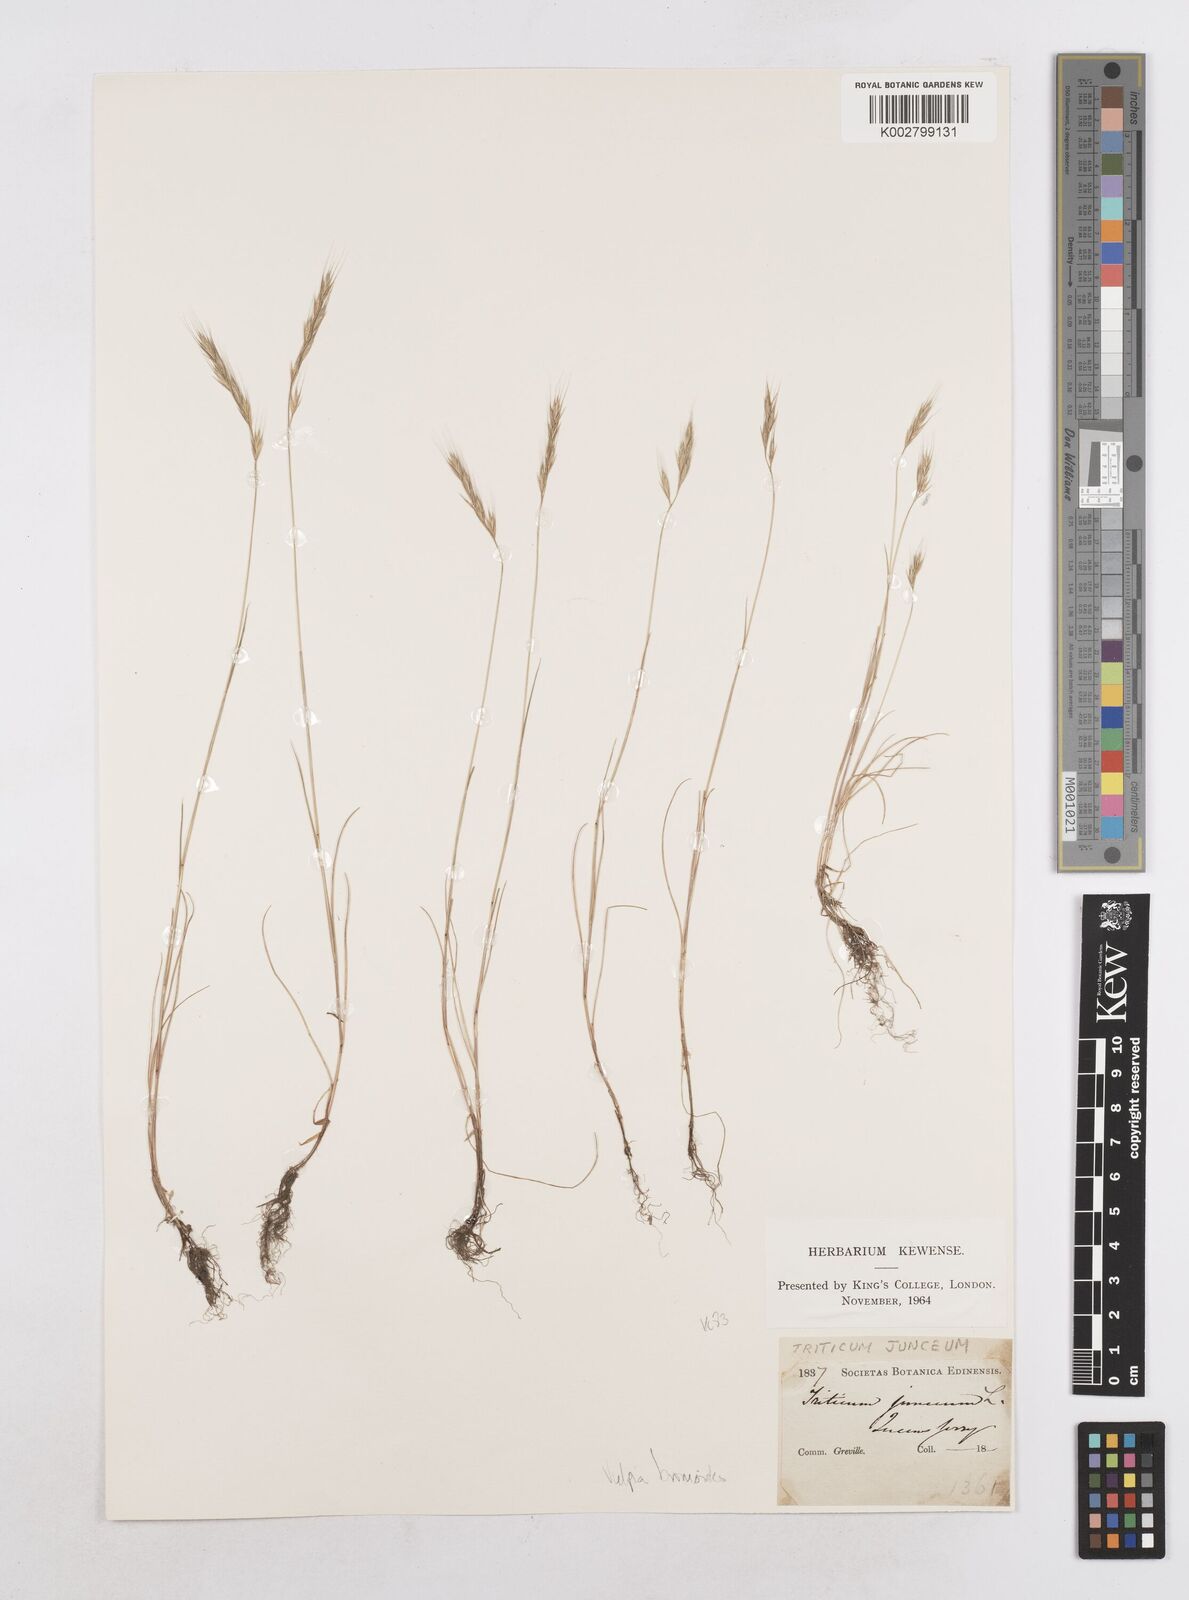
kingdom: Plantae
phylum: Tracheophyta
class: Liliopsida
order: Poales
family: Poaceae
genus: Festuca
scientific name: Festuca bromoides
